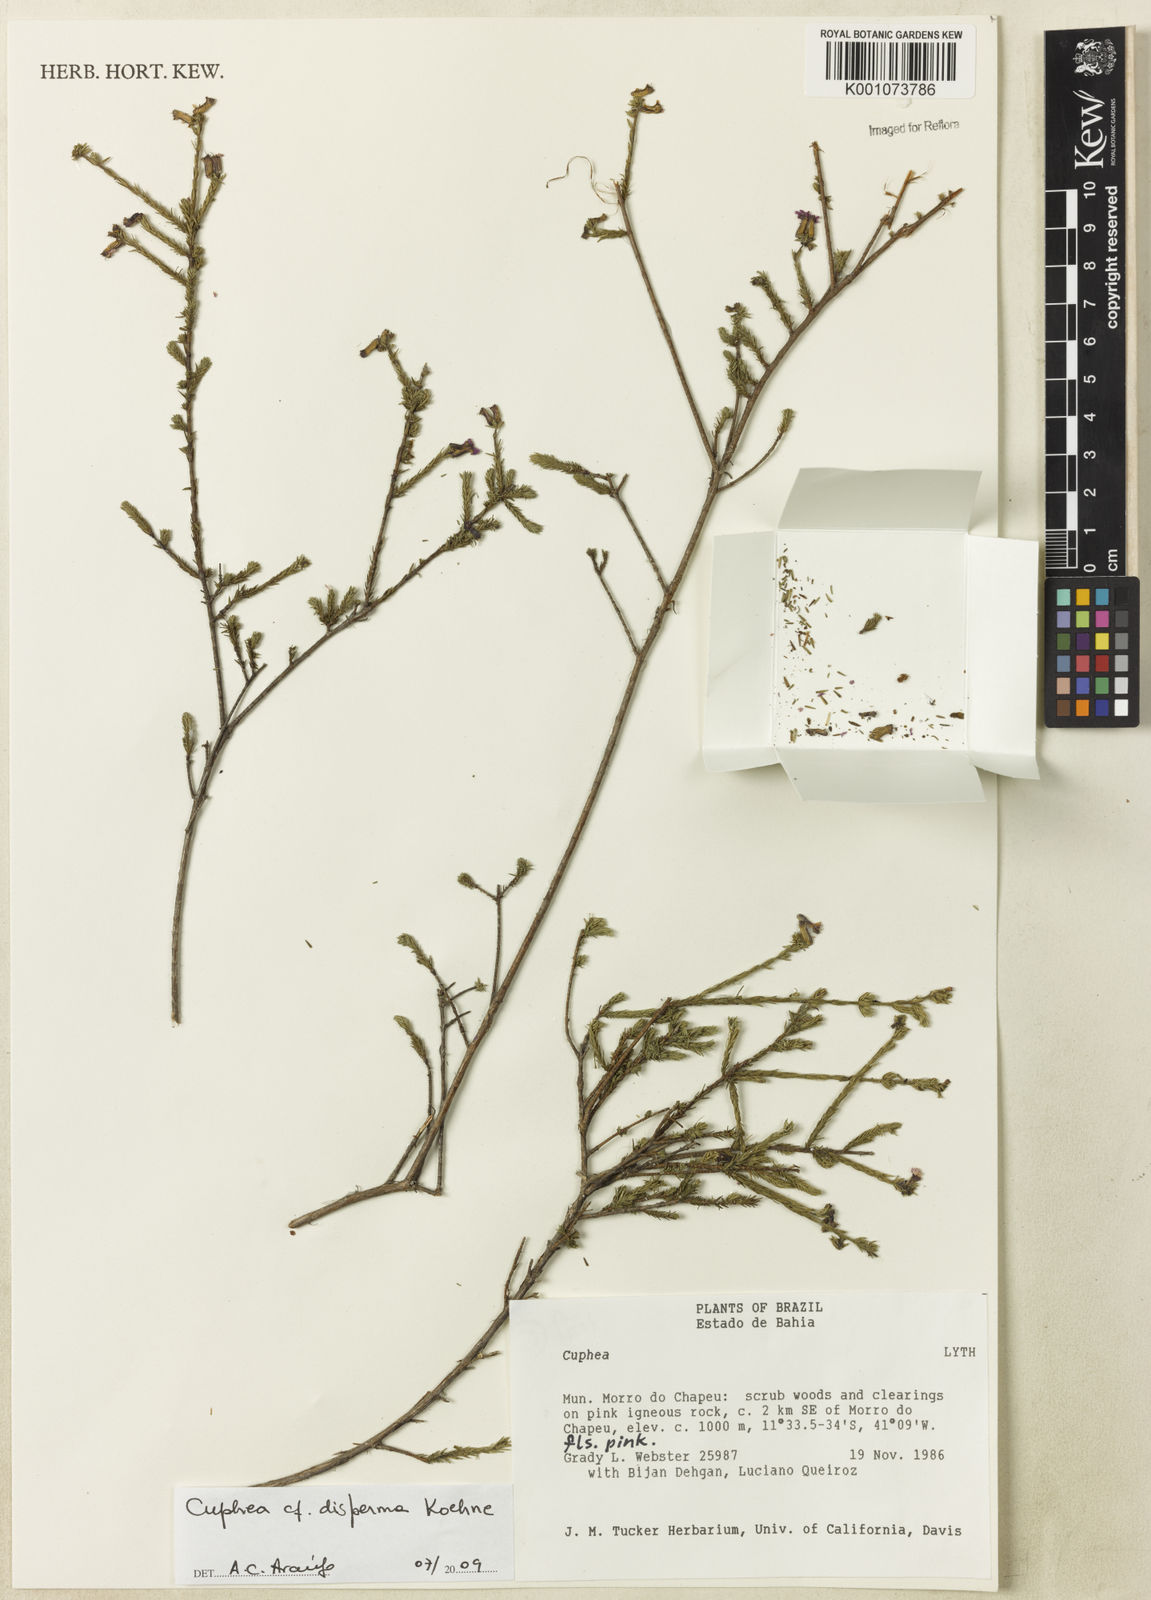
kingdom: Plantae
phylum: Tracheophyta
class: Magnoliopsida
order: Myrtales
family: Lythraceae
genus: Cuphea
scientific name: Cuphea disperma
